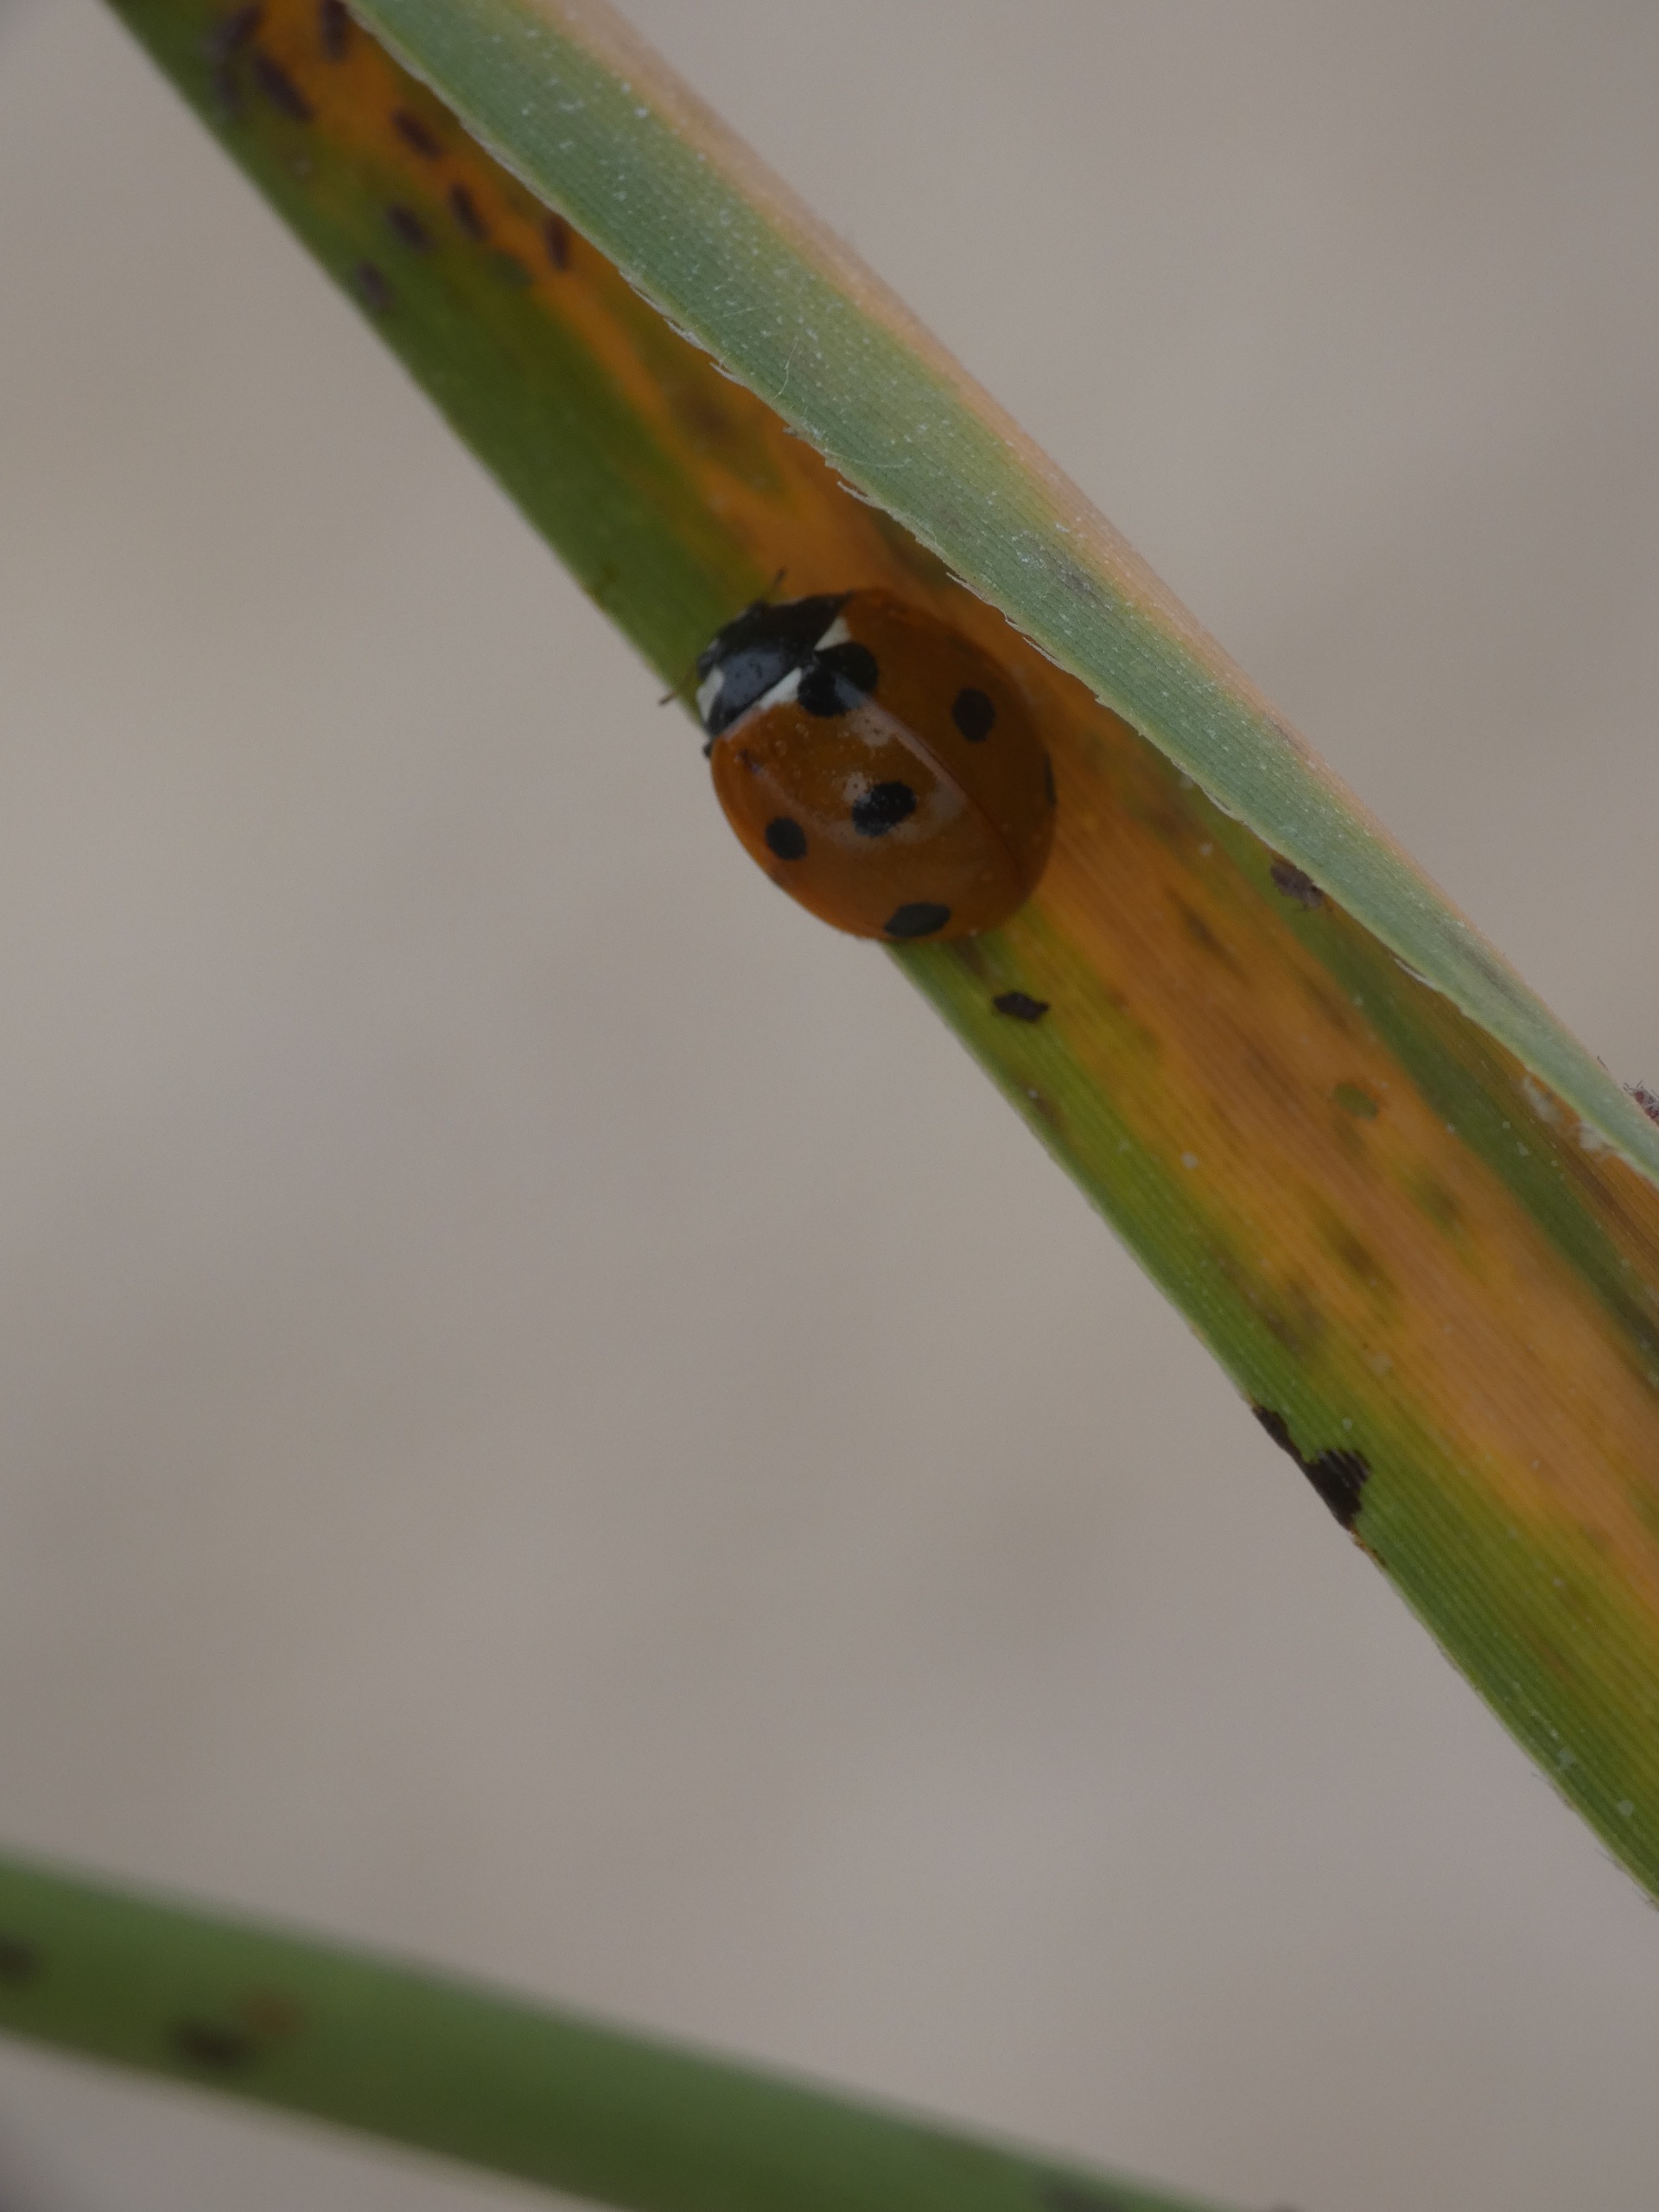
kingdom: Animalia
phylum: Arthropoda
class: Insecta
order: Coleoptera
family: Coccinellidae
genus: Coccinella
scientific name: Coccinella septempunctata
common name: Syvplettet mariehøne
